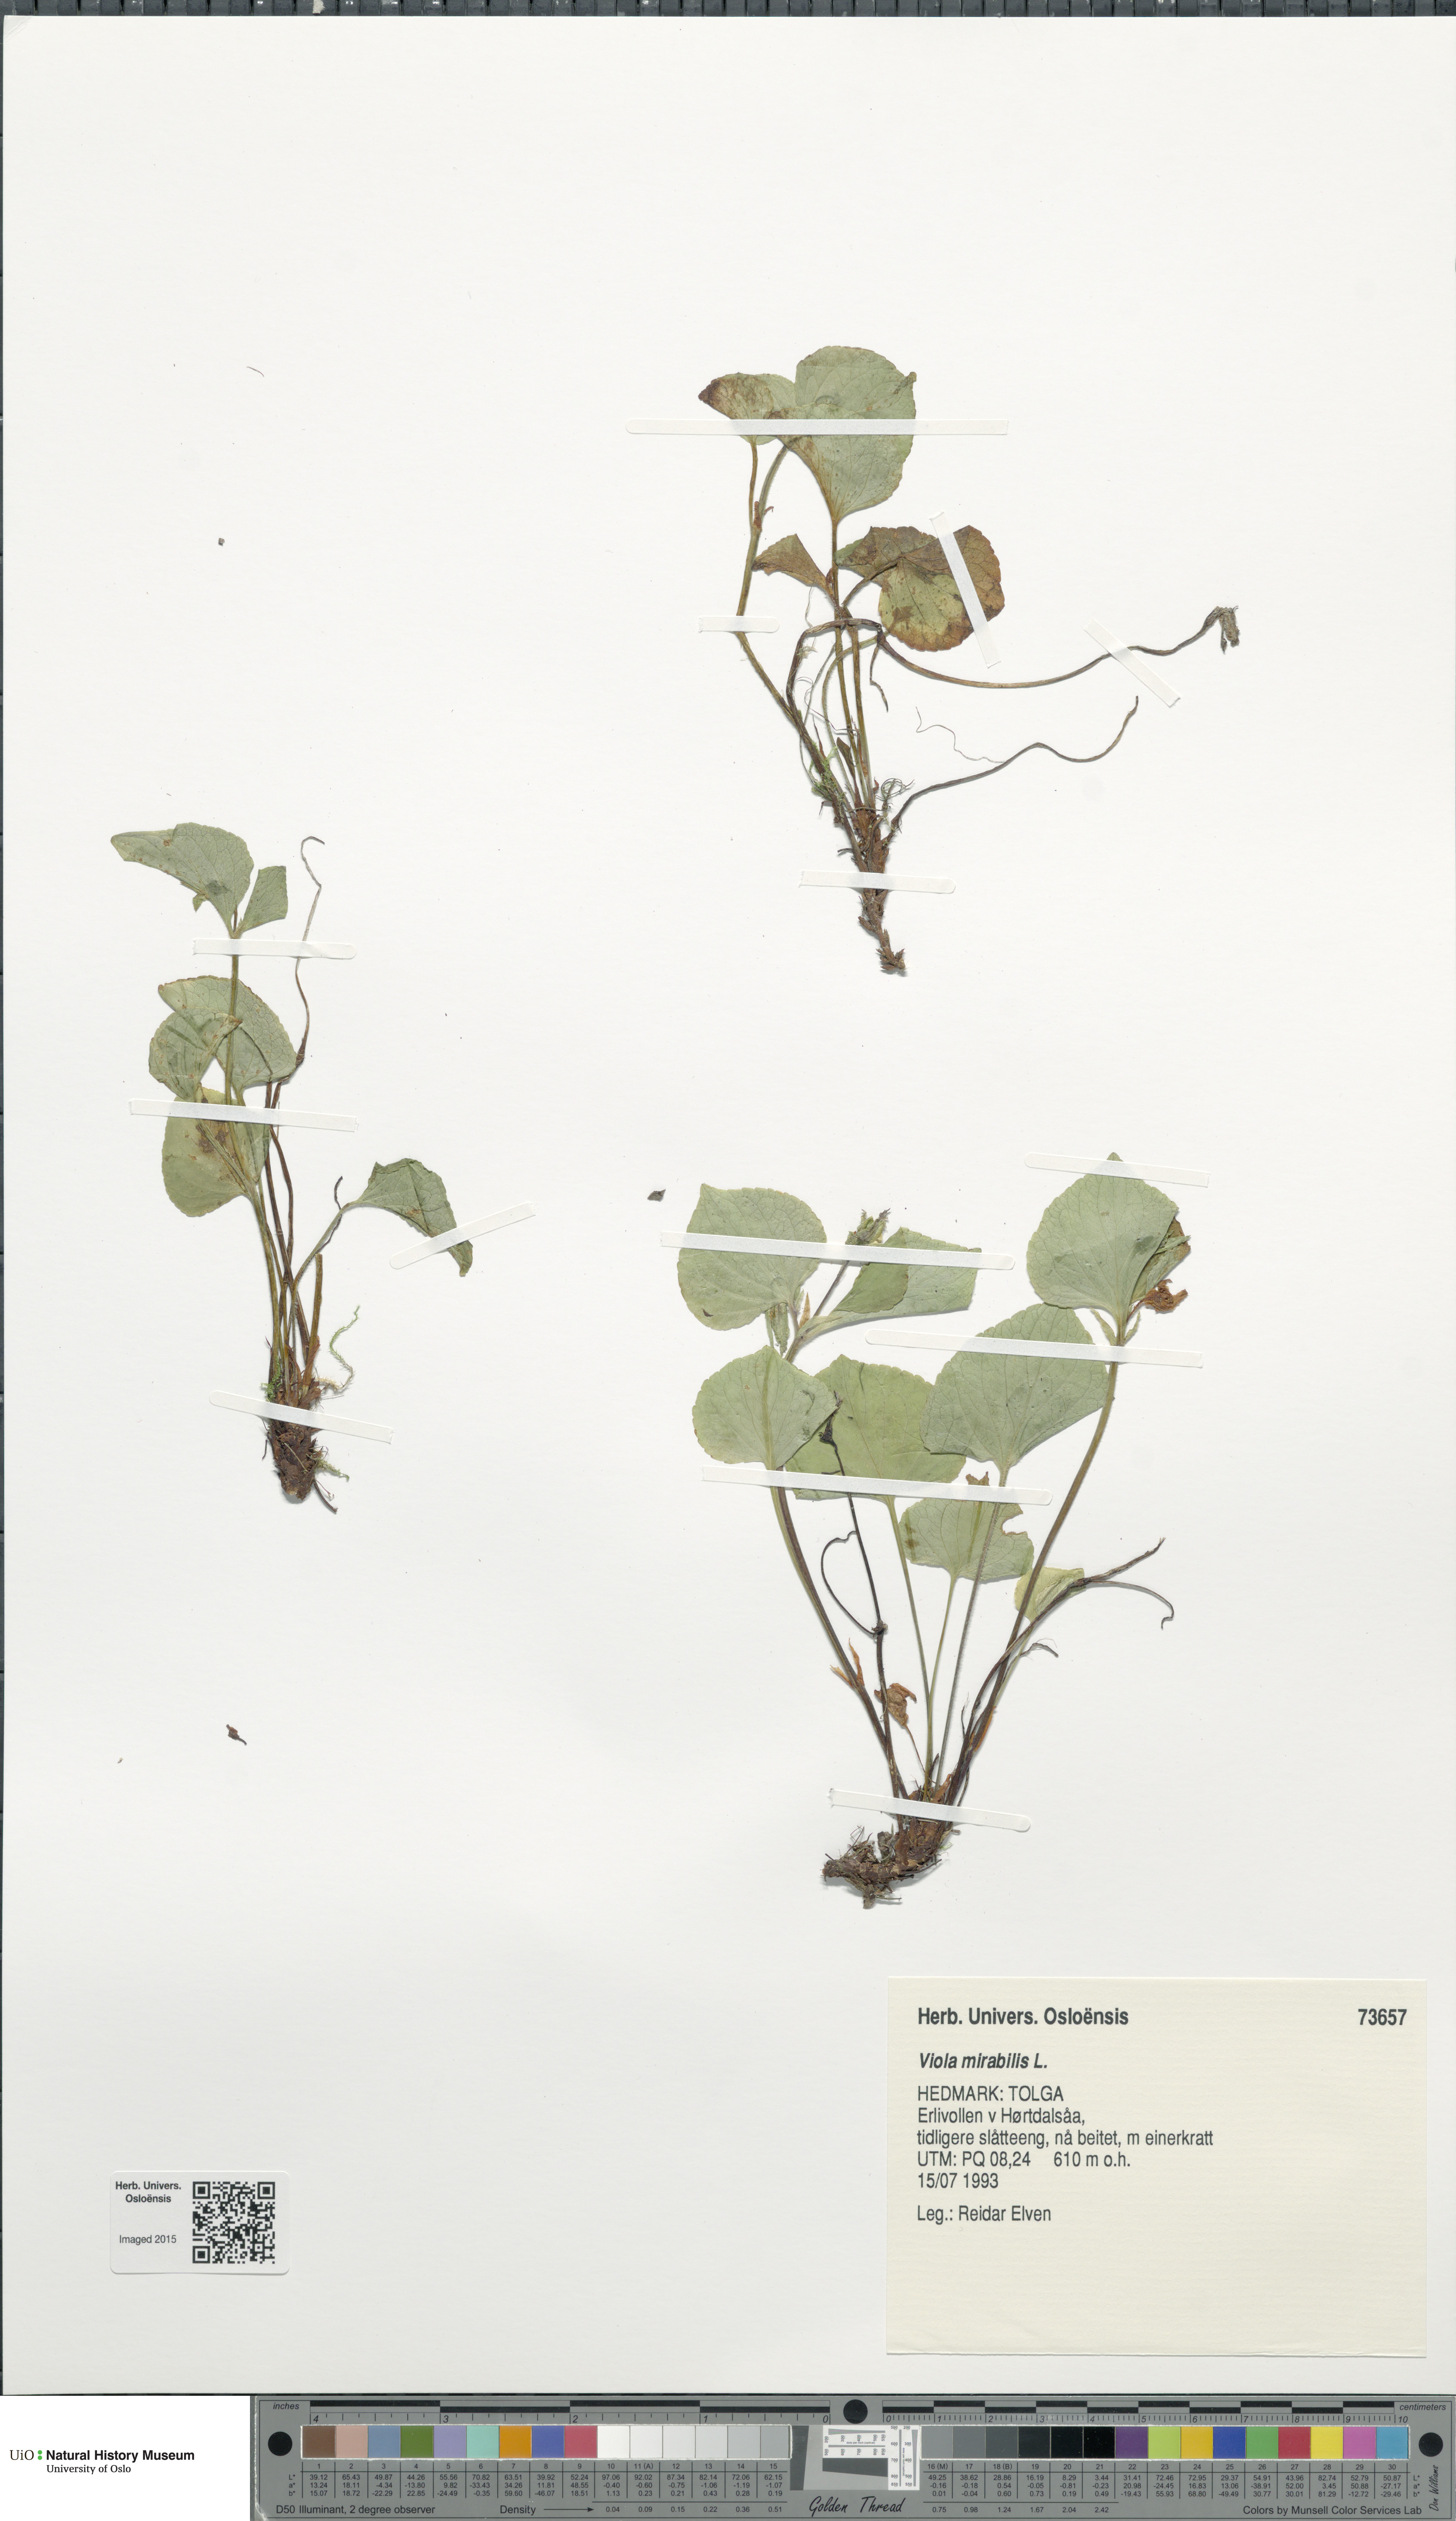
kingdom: Plantae
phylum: Tracheophyta
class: Magnoliopsida
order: Malpighiales
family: Violaceae
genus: Viola
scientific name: Viola mirabilis
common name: Wonder violet
